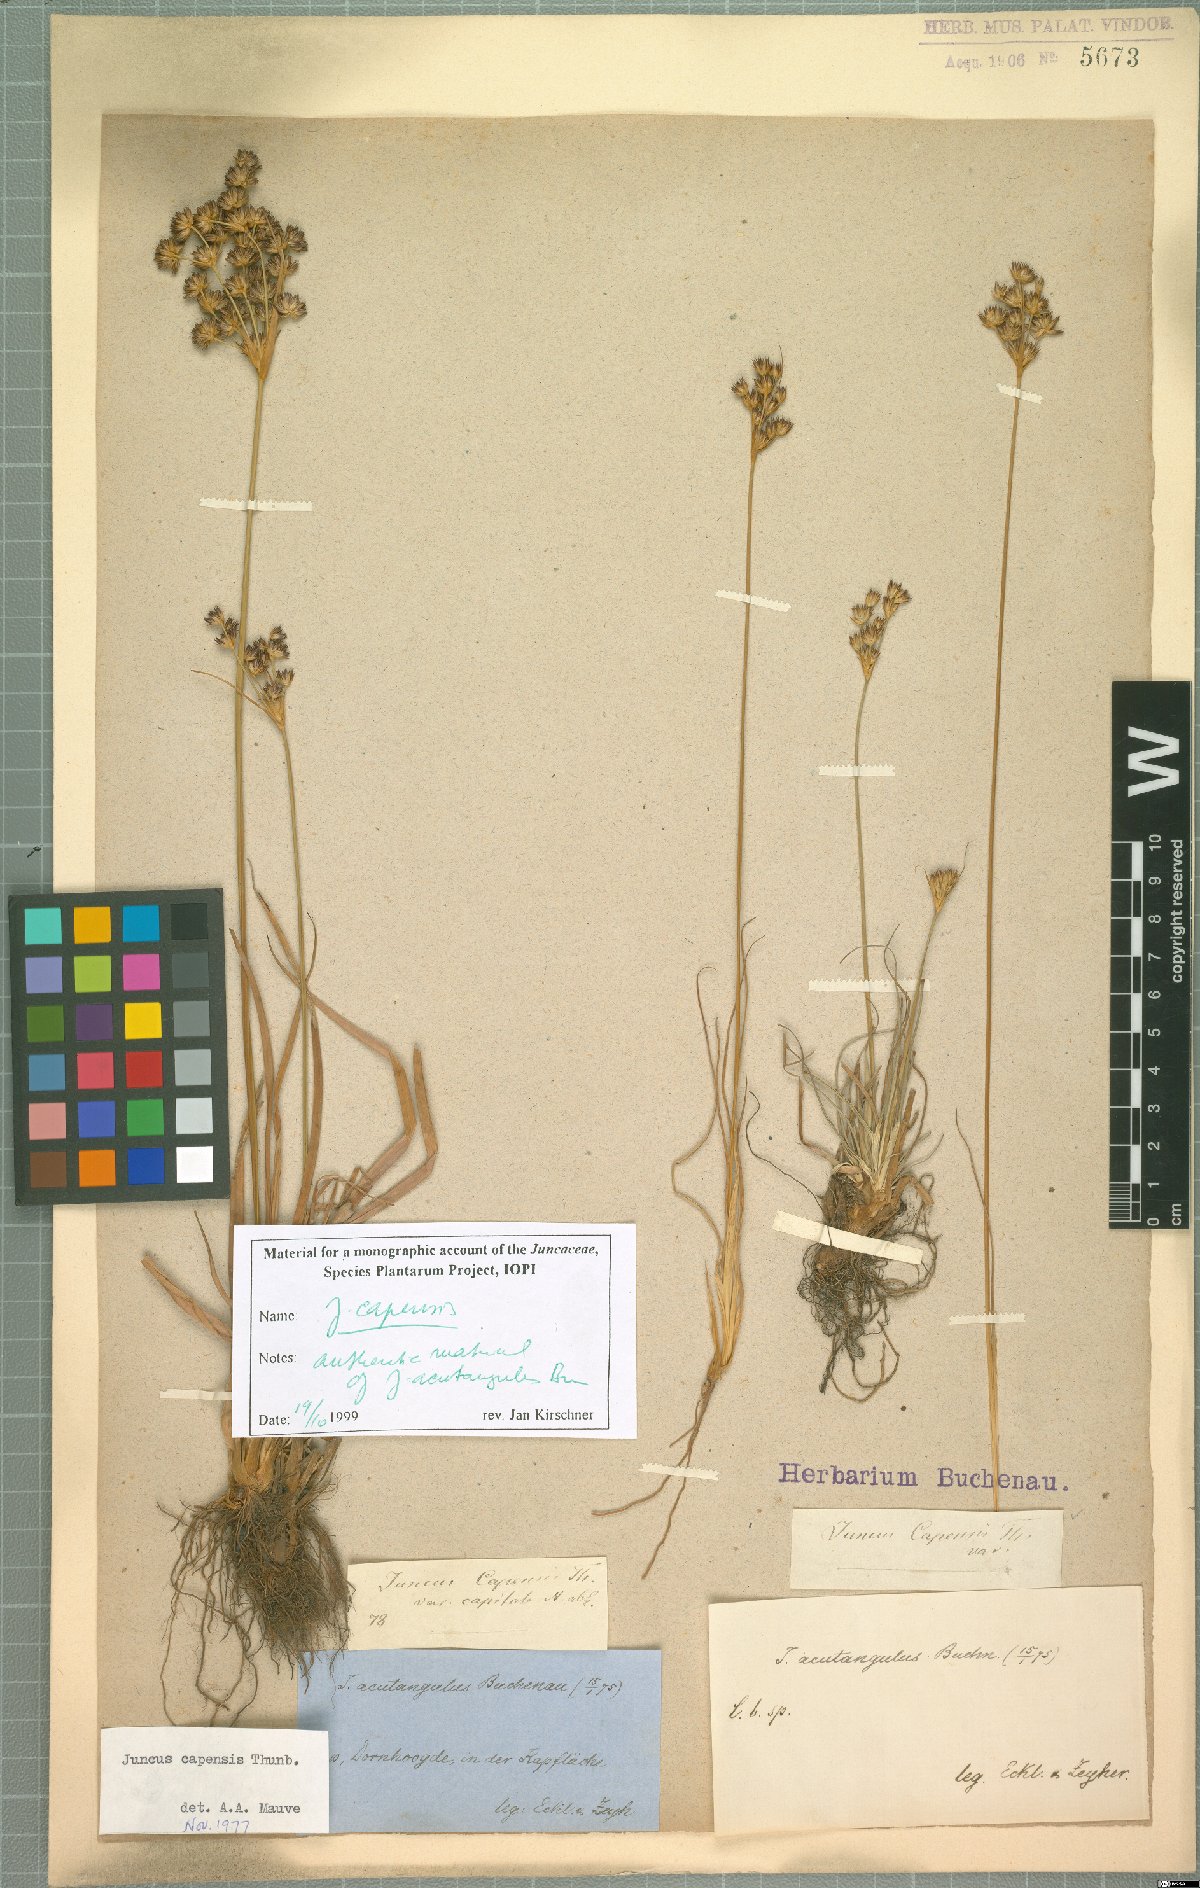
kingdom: Plantae
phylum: Tracheophyta
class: Liliopsida
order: Poales
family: Juncaceae
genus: Juncus
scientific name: Juncus capensis
